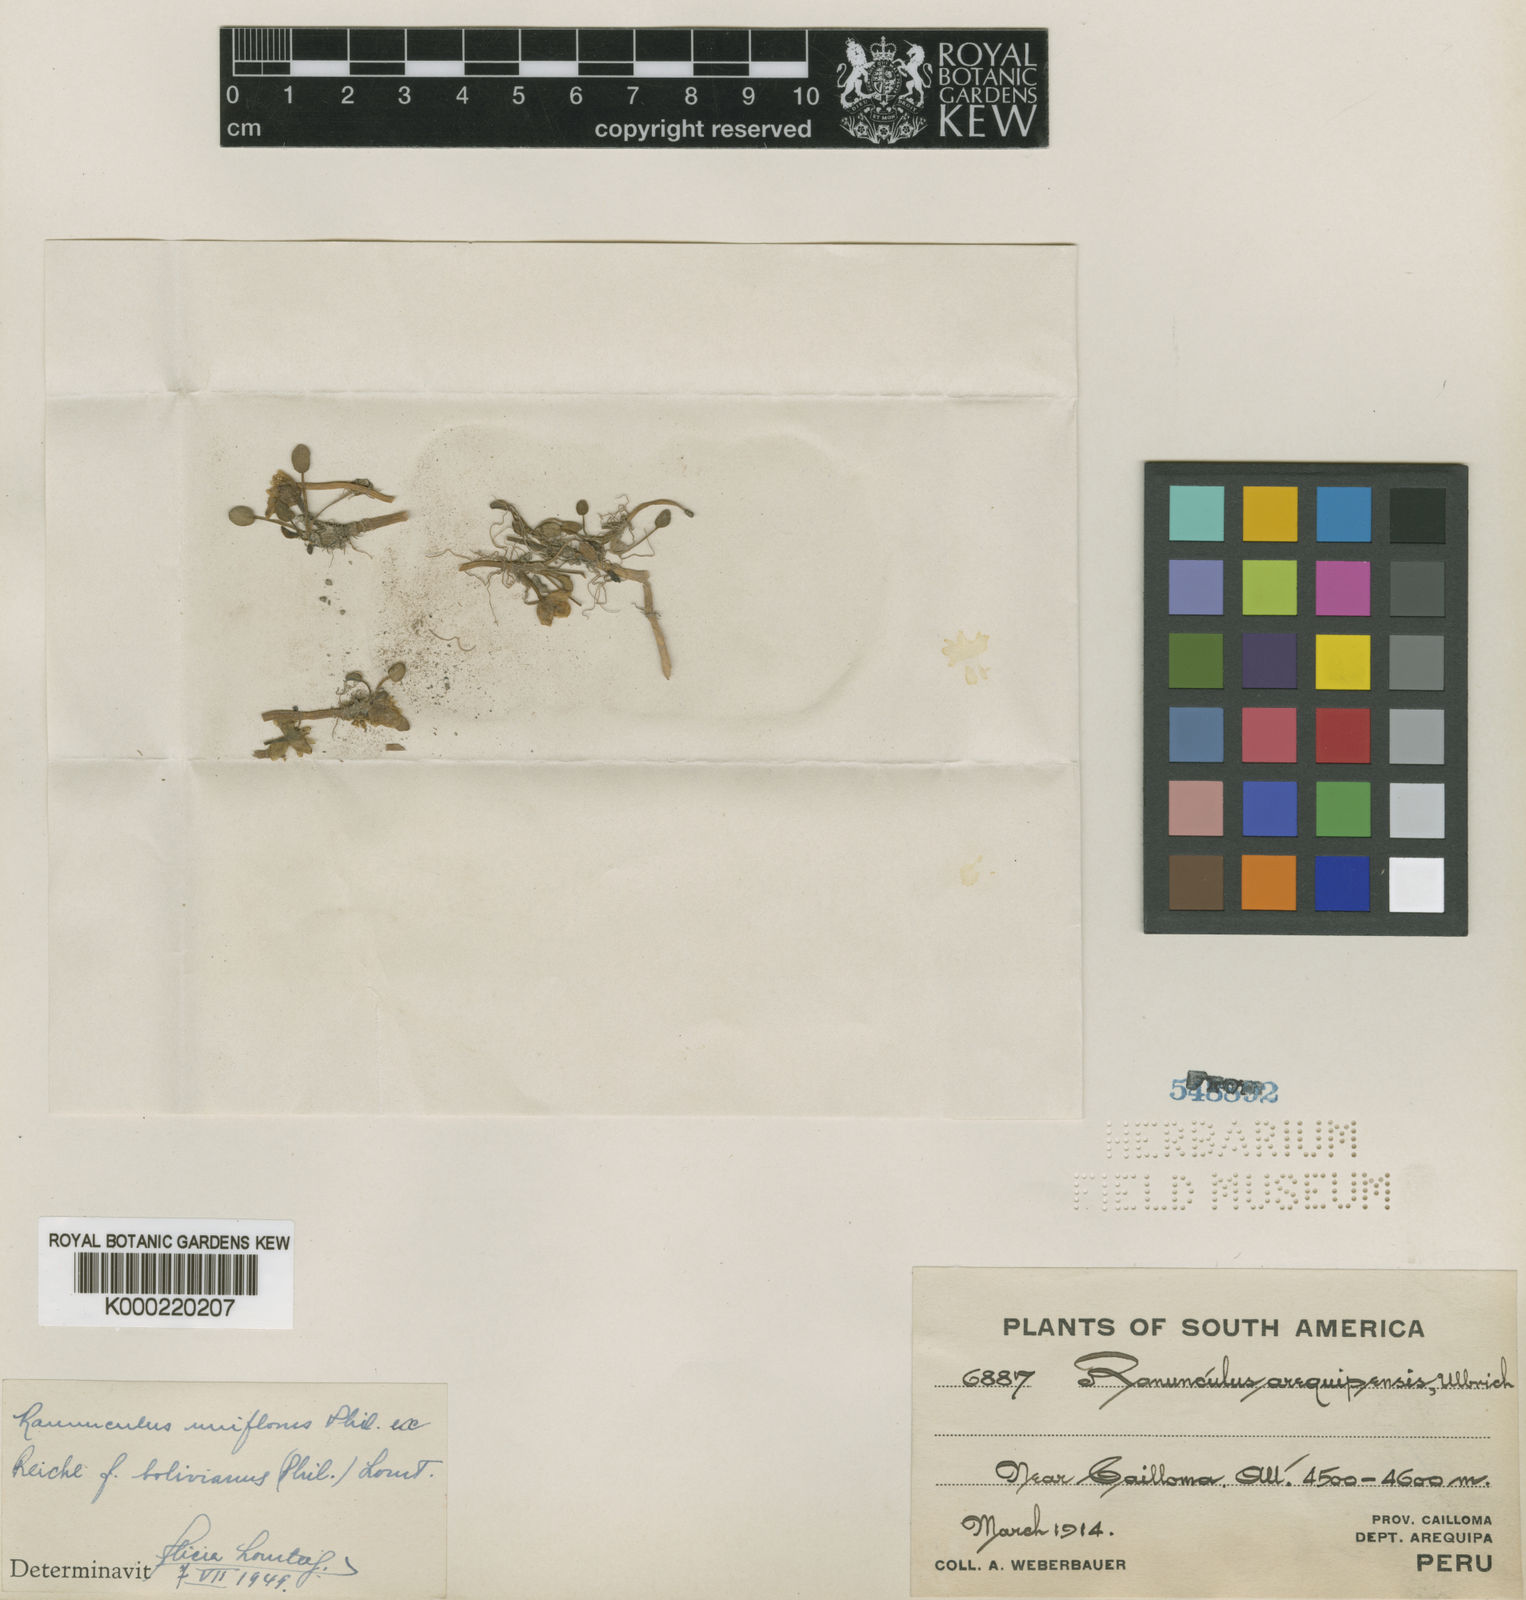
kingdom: Plantae
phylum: Tracheophyta
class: Magnoliopsida
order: Ranunculales
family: Ranunculaceae
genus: Halerpestes
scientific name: Halerpestes uniflora
